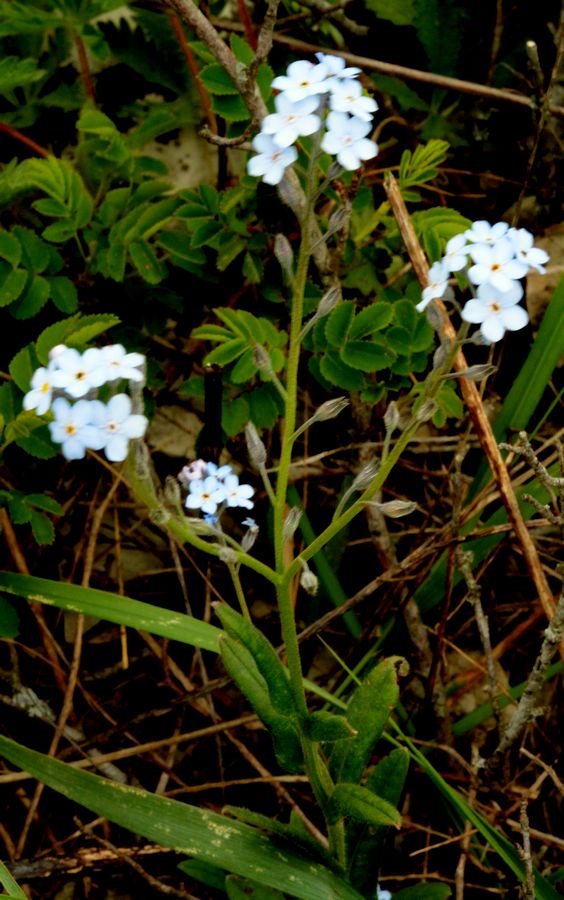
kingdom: Plantae
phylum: Tracheophyta
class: Magnoliopsida
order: Boraginales
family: Boraginaceae
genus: Myosotis
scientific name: Myosotis alpestris
